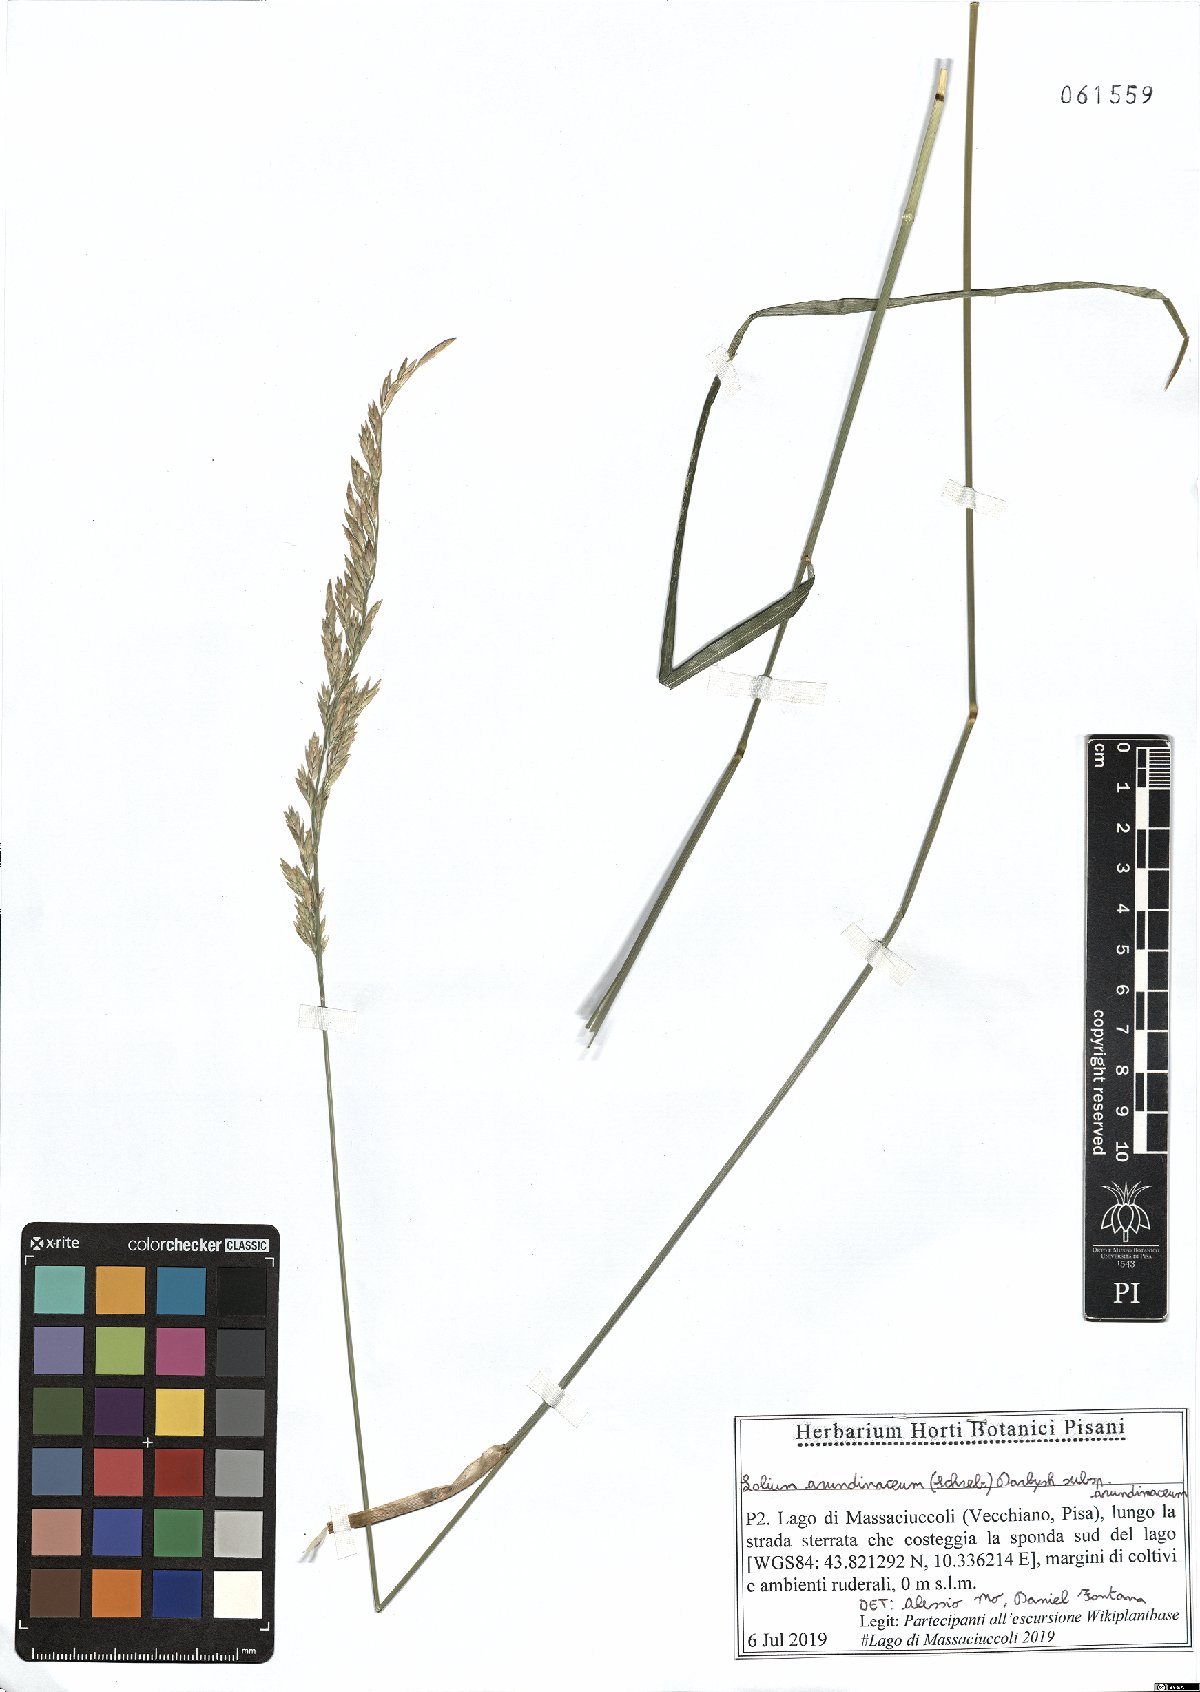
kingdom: Plantae
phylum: Tracheophyta
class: Liliopsida
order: Poales
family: Poaceae
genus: Lolium
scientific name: Lolium arundinaceum
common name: Reed fescue
